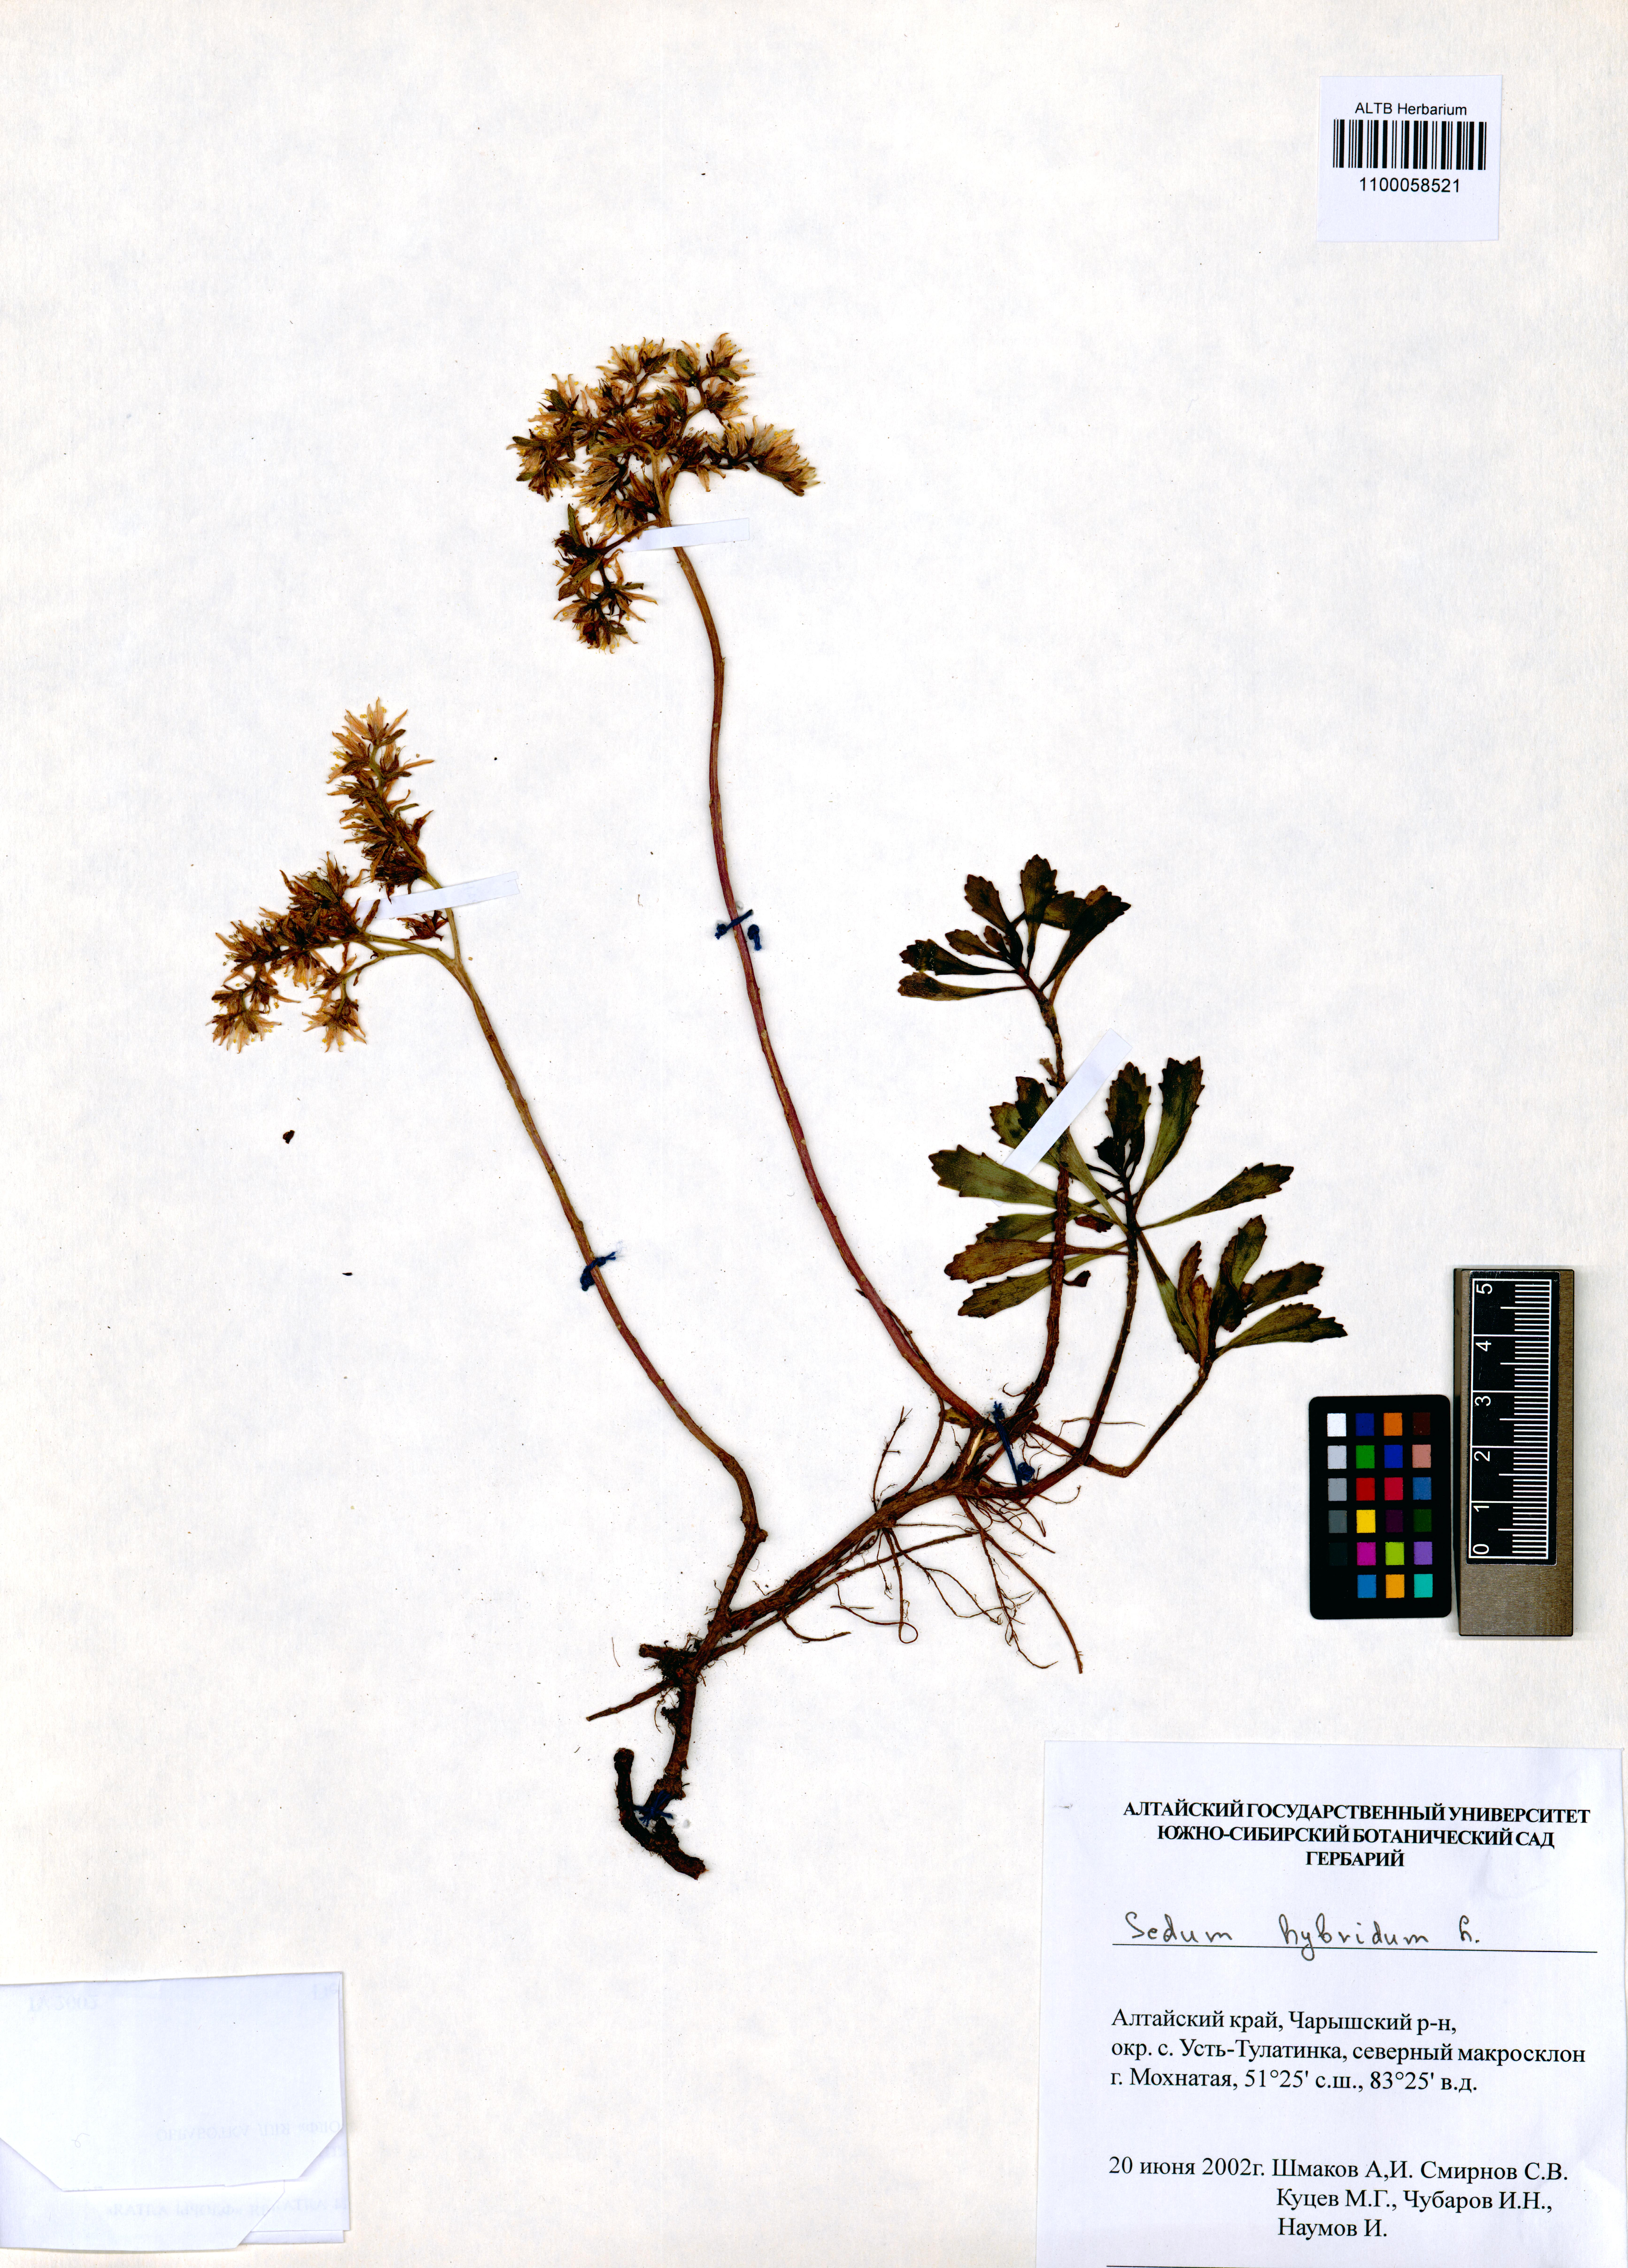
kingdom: Plantae
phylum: Tracheophyta
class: Magnoliopsida
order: Saxifragales
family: Crassulaceae
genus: Phedimus
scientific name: Phedimus hybridus
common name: Hybrid stonecrop
